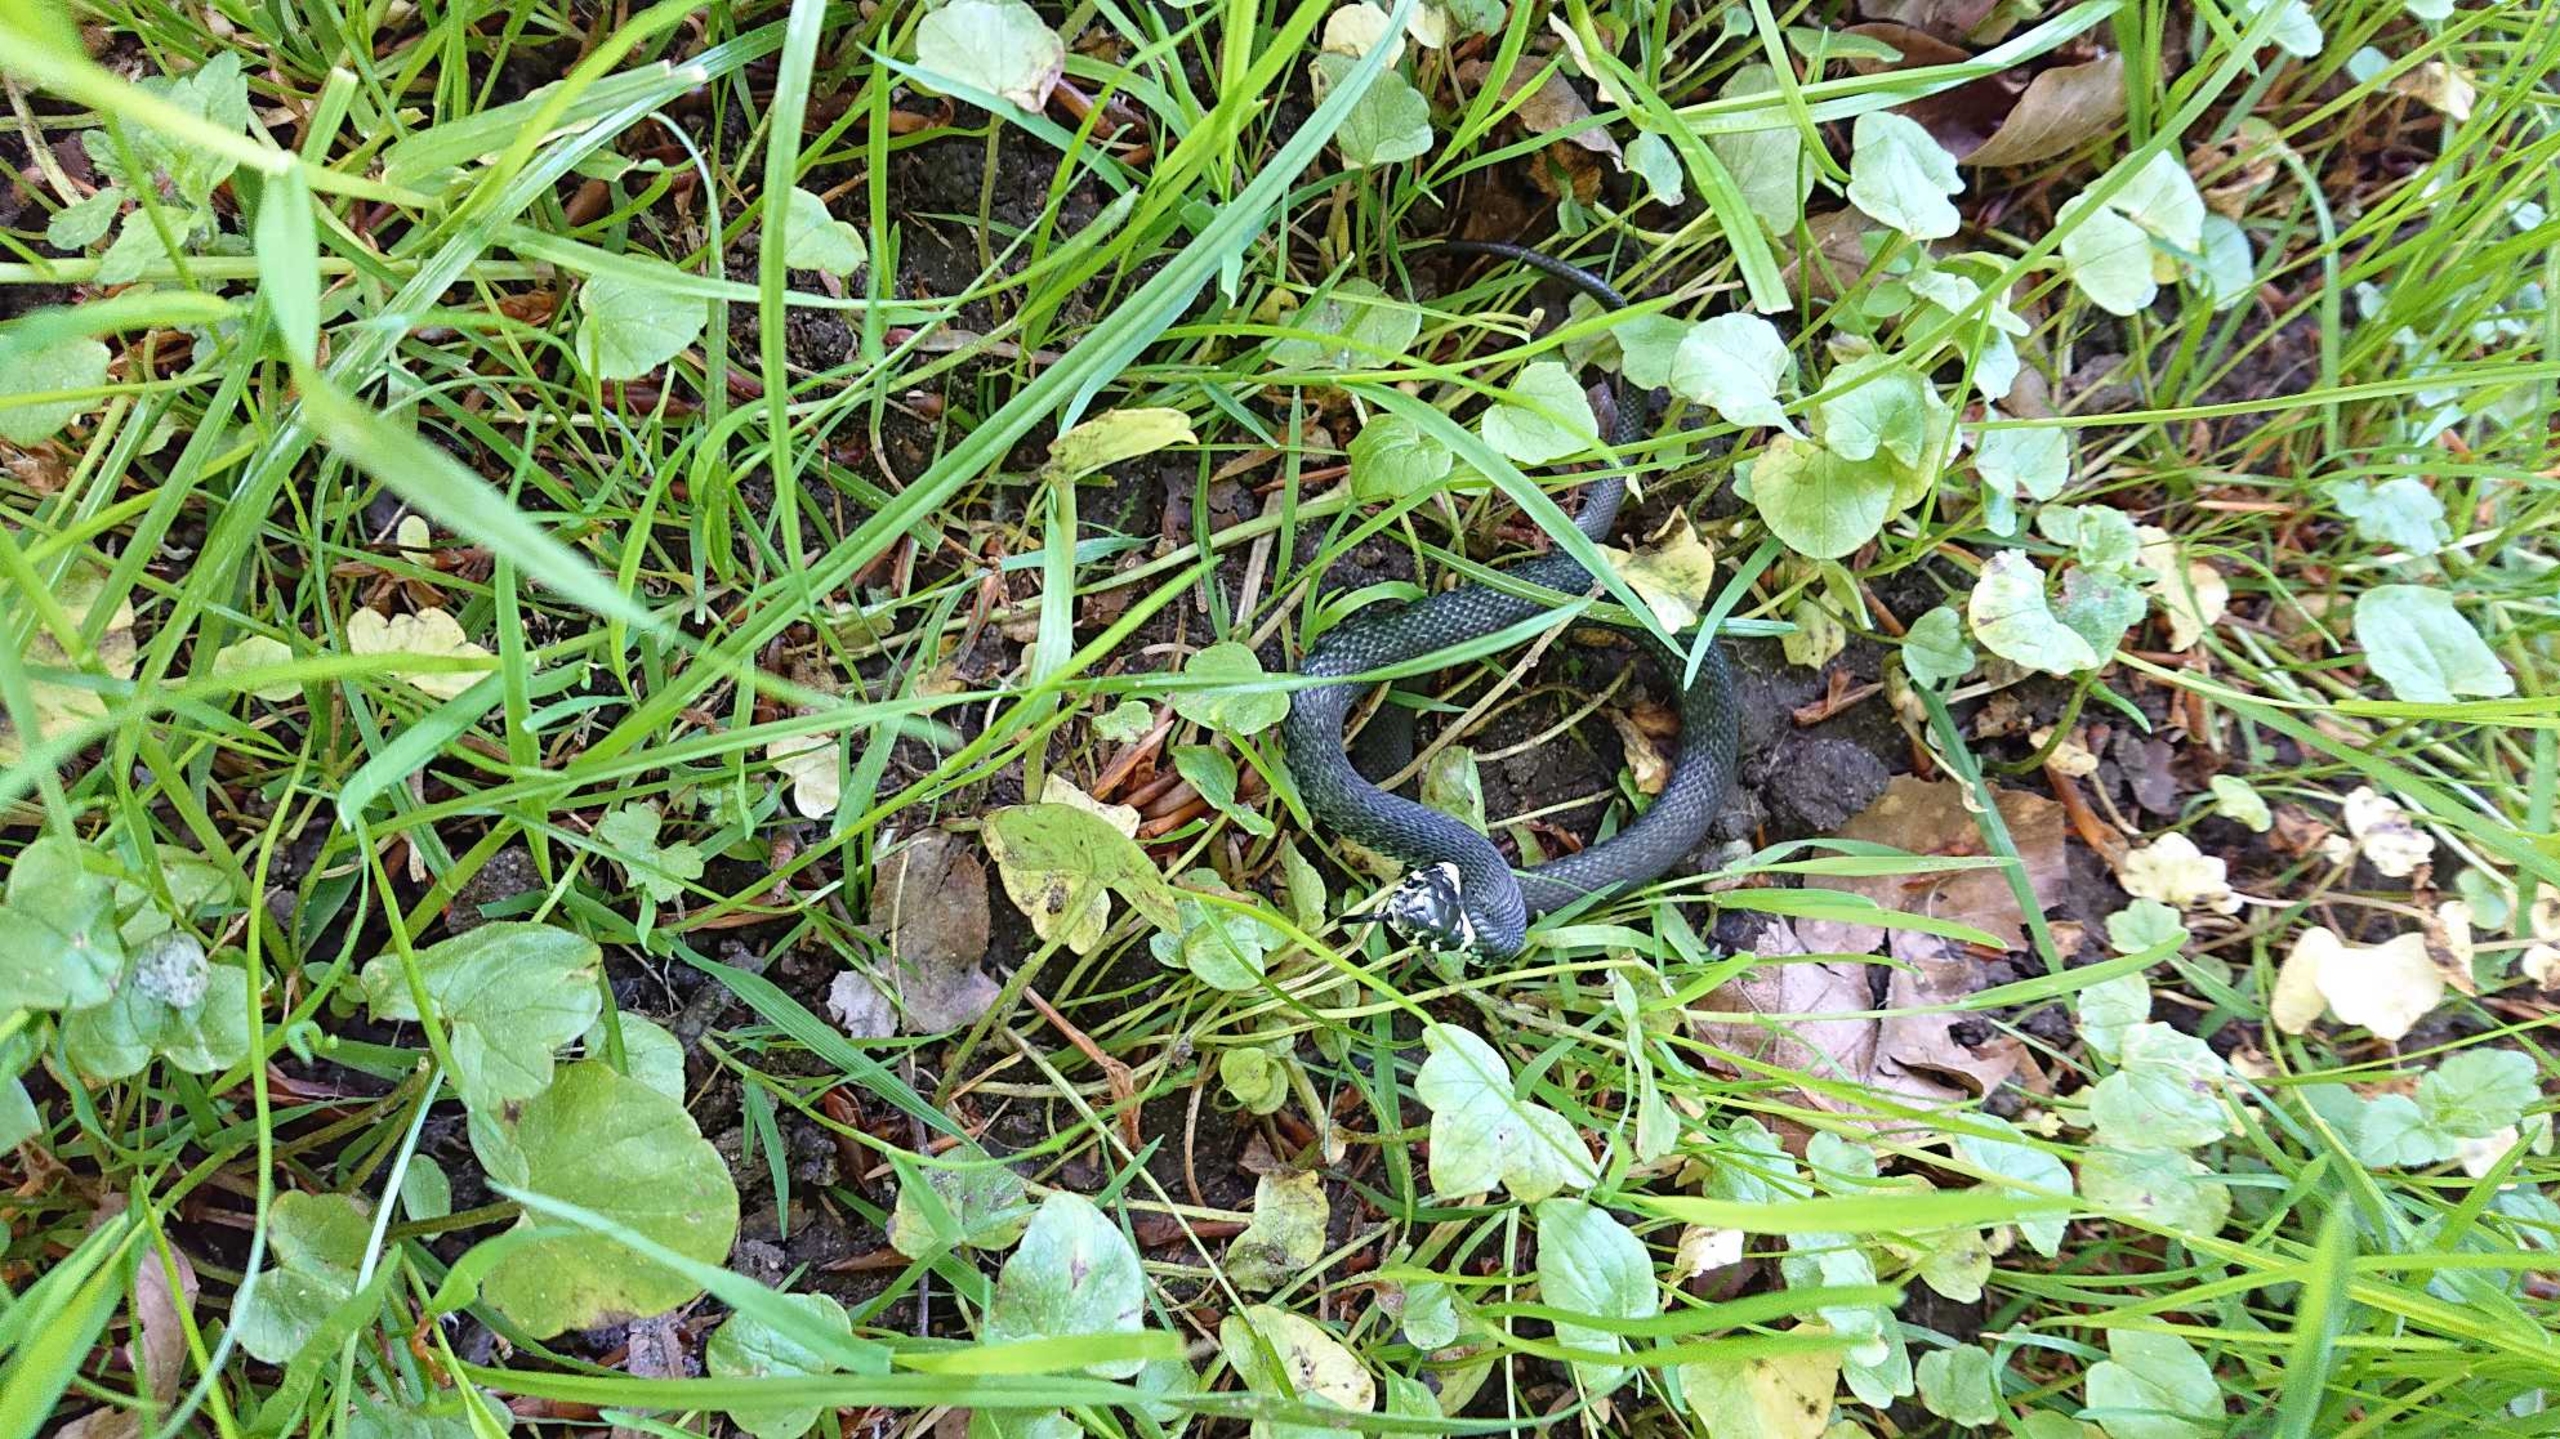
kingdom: Animalia
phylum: Chordata
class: Squamata
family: Colubridae
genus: Natrix
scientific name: Natrix natrix
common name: Snog
